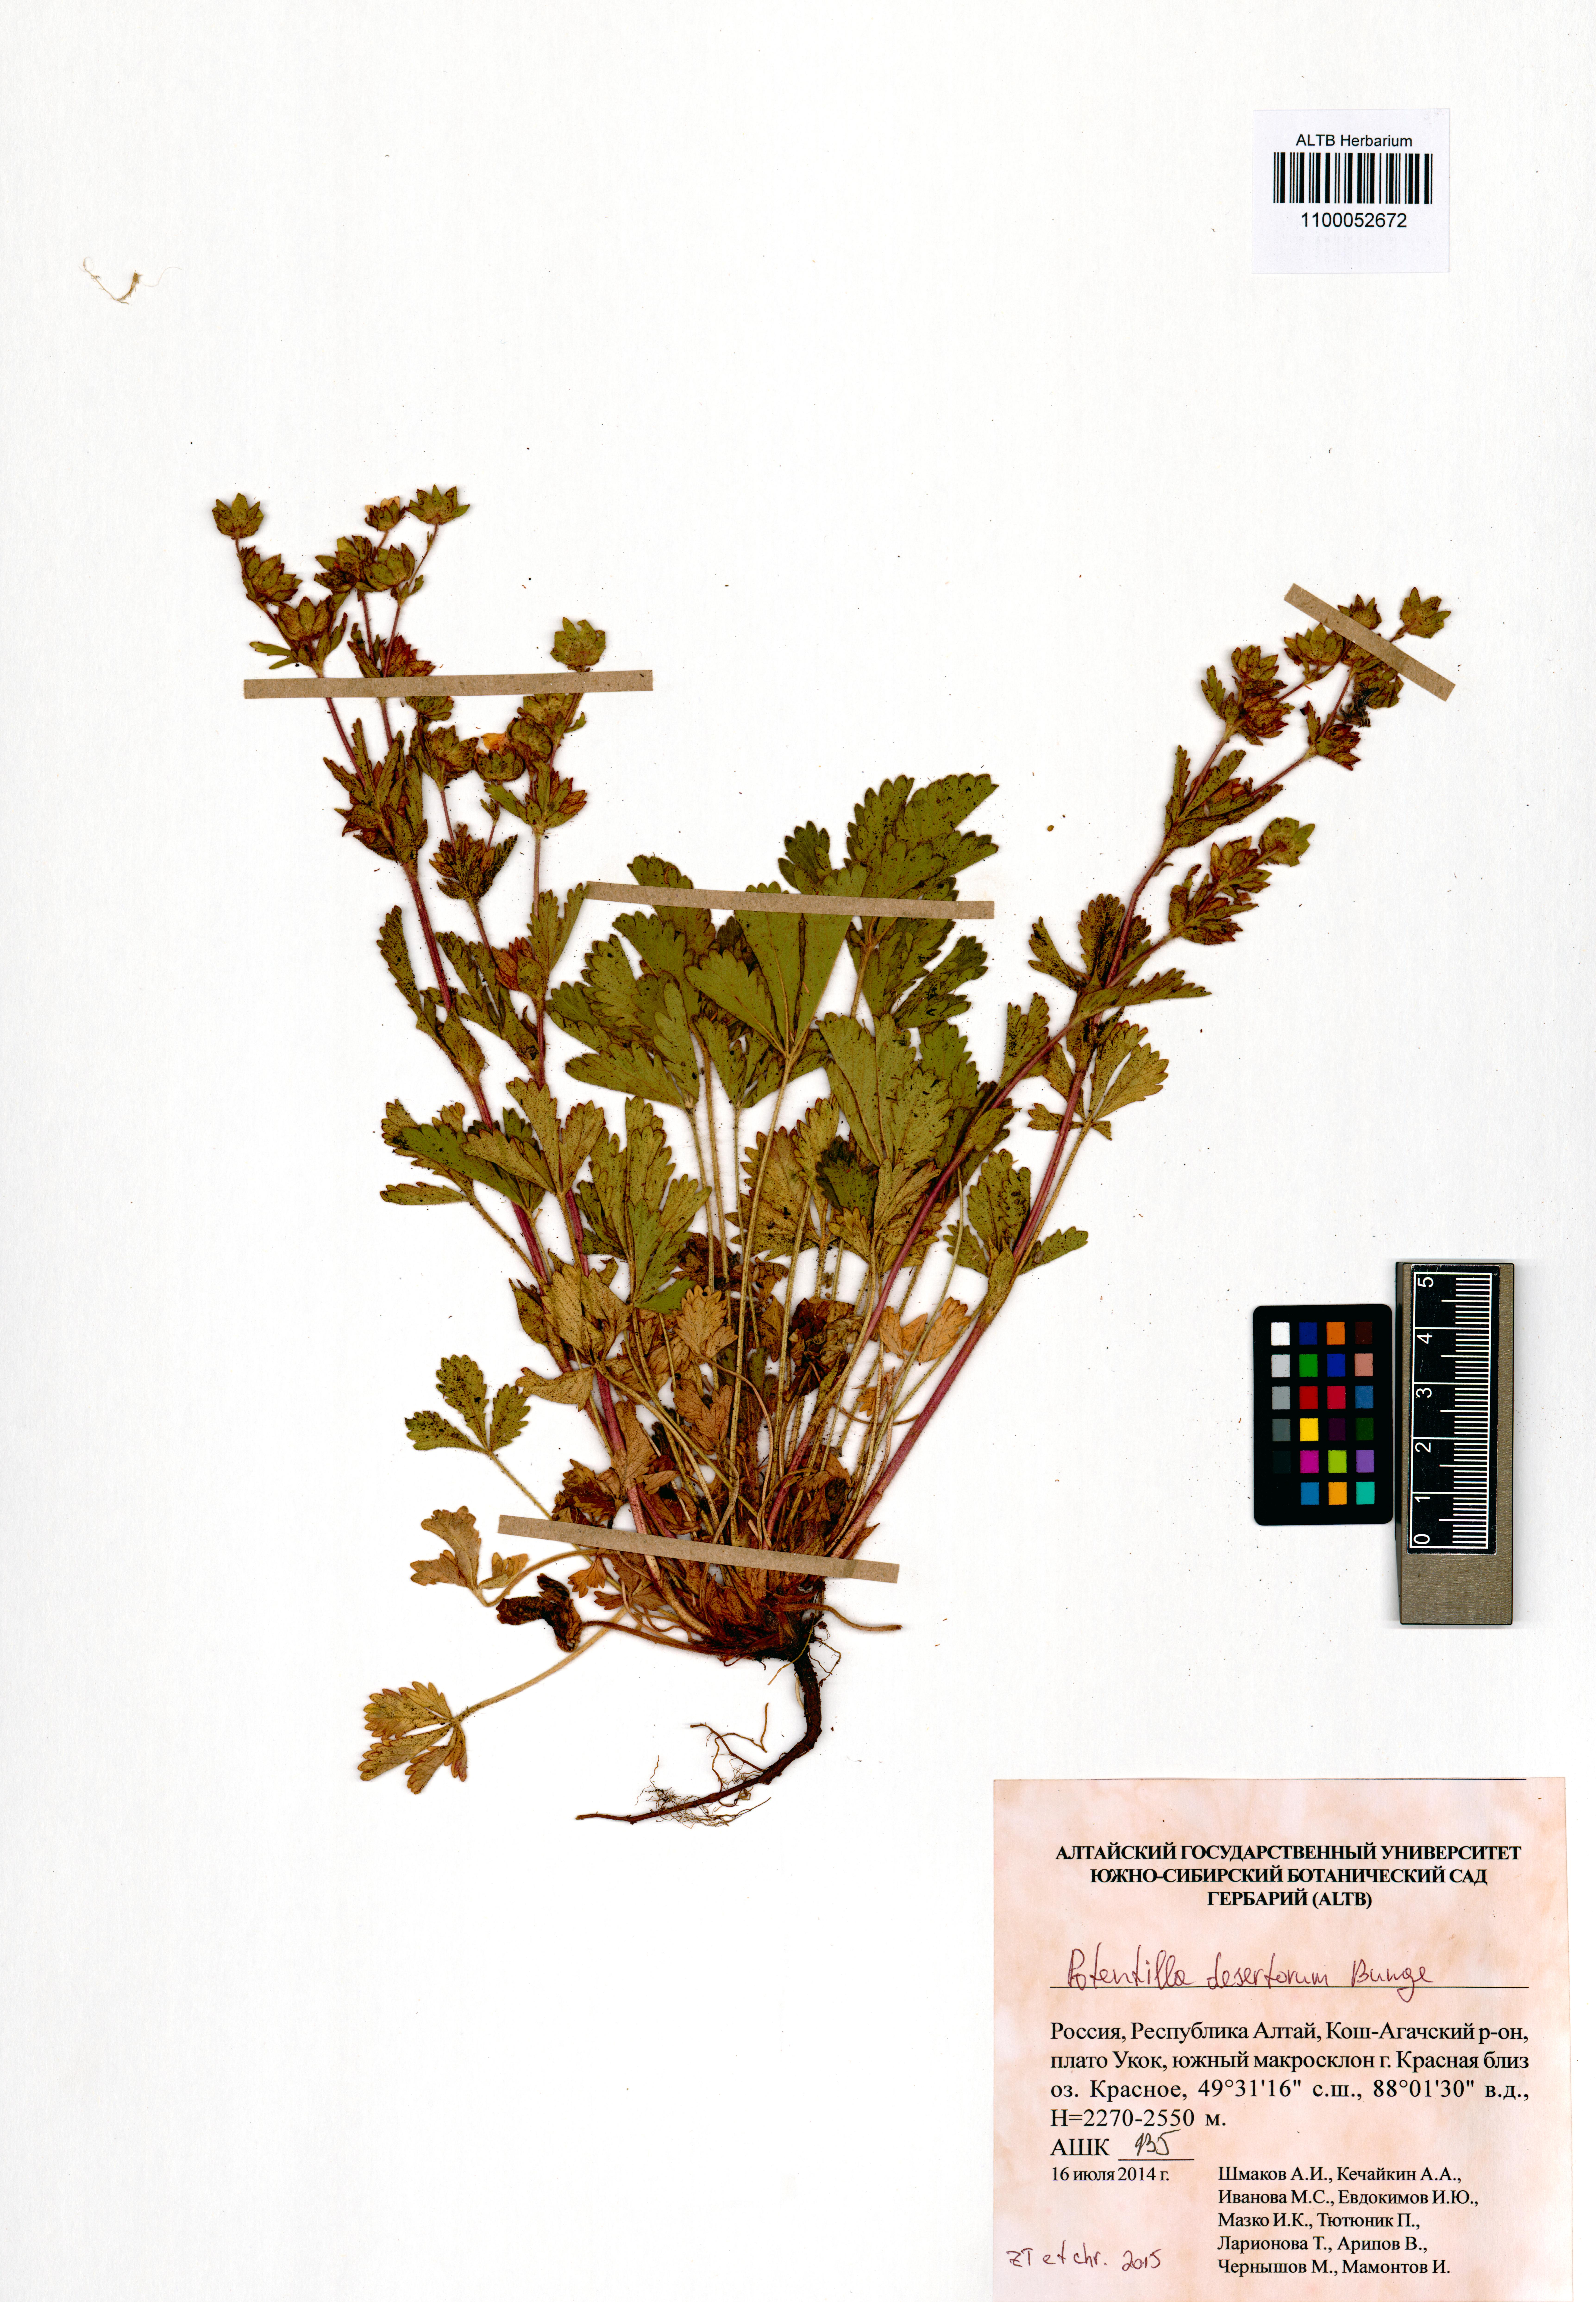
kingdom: Plantae
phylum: Tracheophyta
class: Magnoliopsida
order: Rosales
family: Rosaceae
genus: Potentilla
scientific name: Potentilla desertorum
